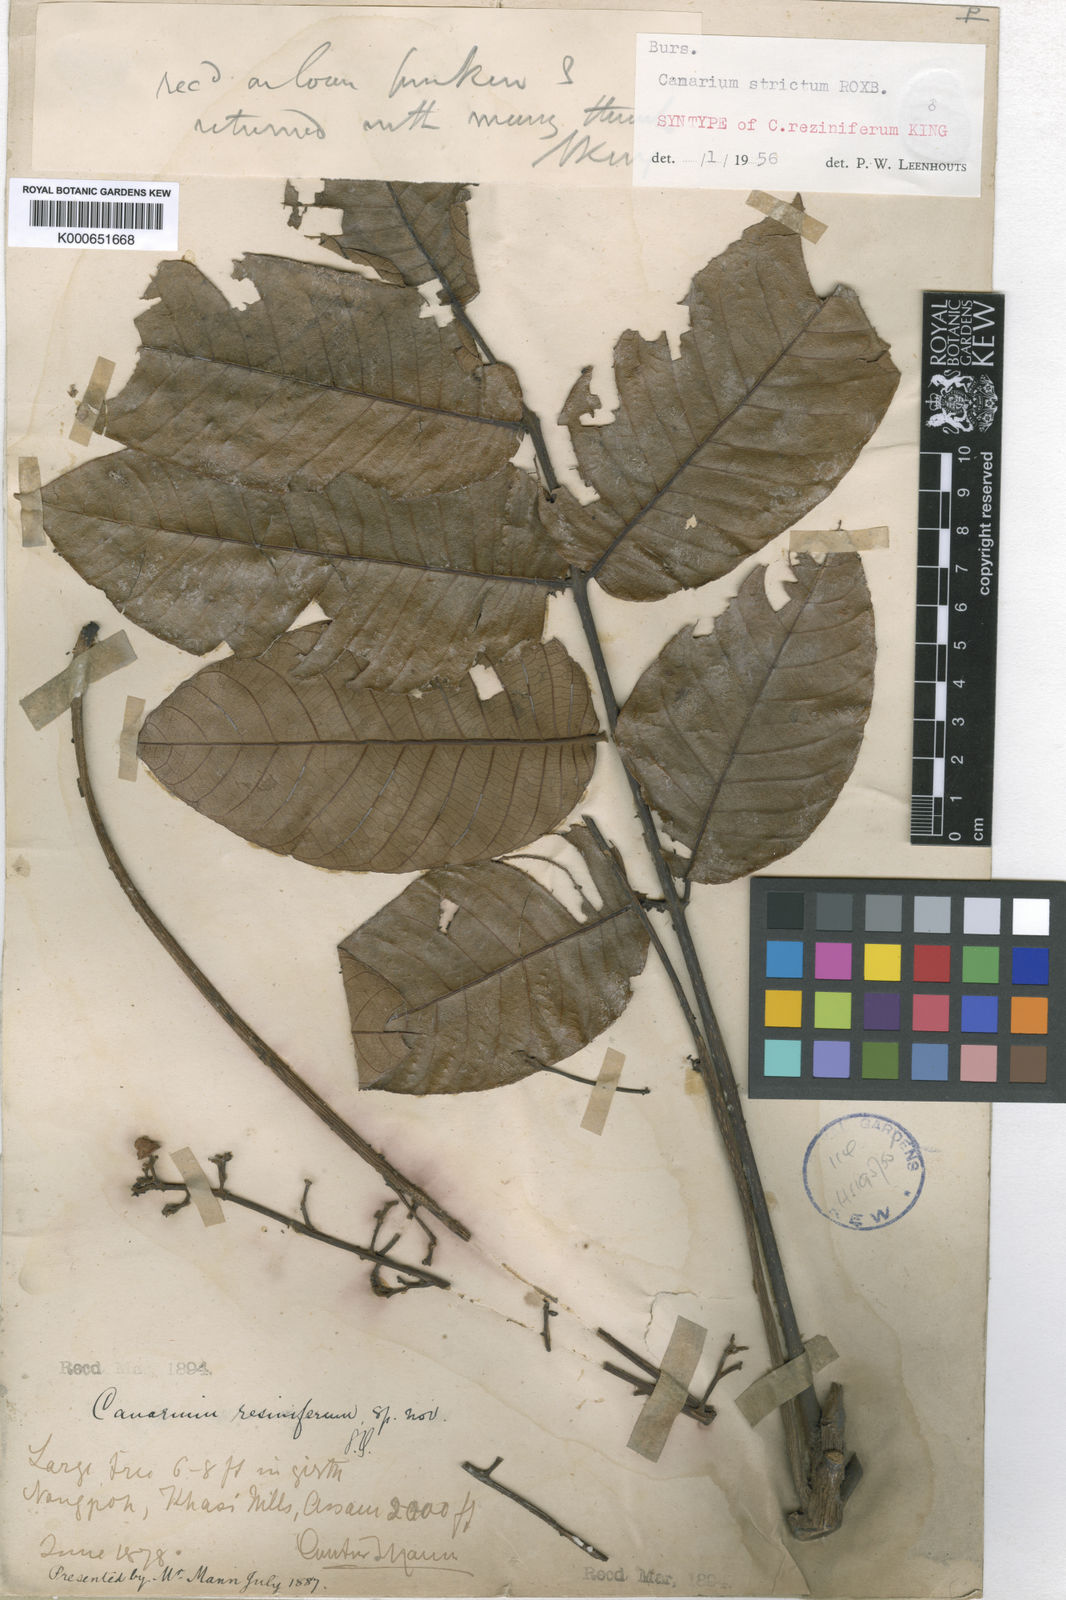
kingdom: Plantae
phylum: Tracheophyta
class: Magnoliopsida
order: Sapindales
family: Burseraceae
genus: Canarium
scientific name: Canarium strictum
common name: Indian white-mahogany
